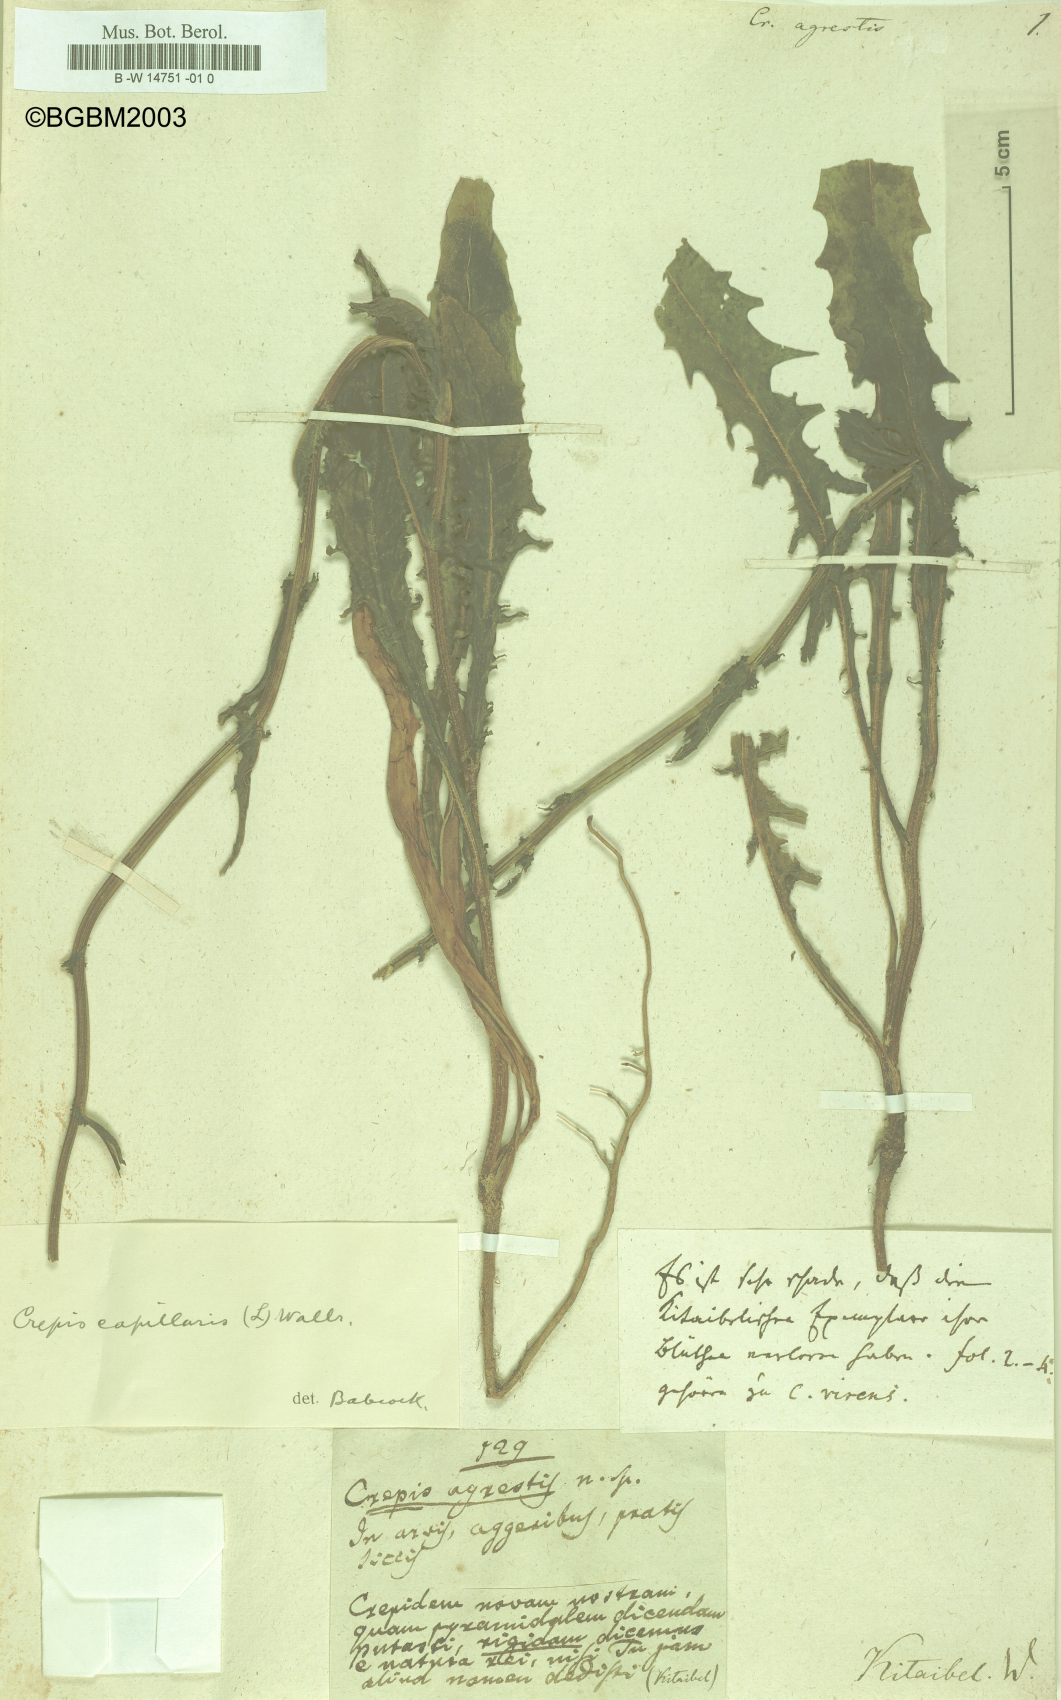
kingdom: Plantae
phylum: Tracheophyta
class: Magnoliopsida
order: Asterales
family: Asteraceae
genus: Crepis
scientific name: Crepis
